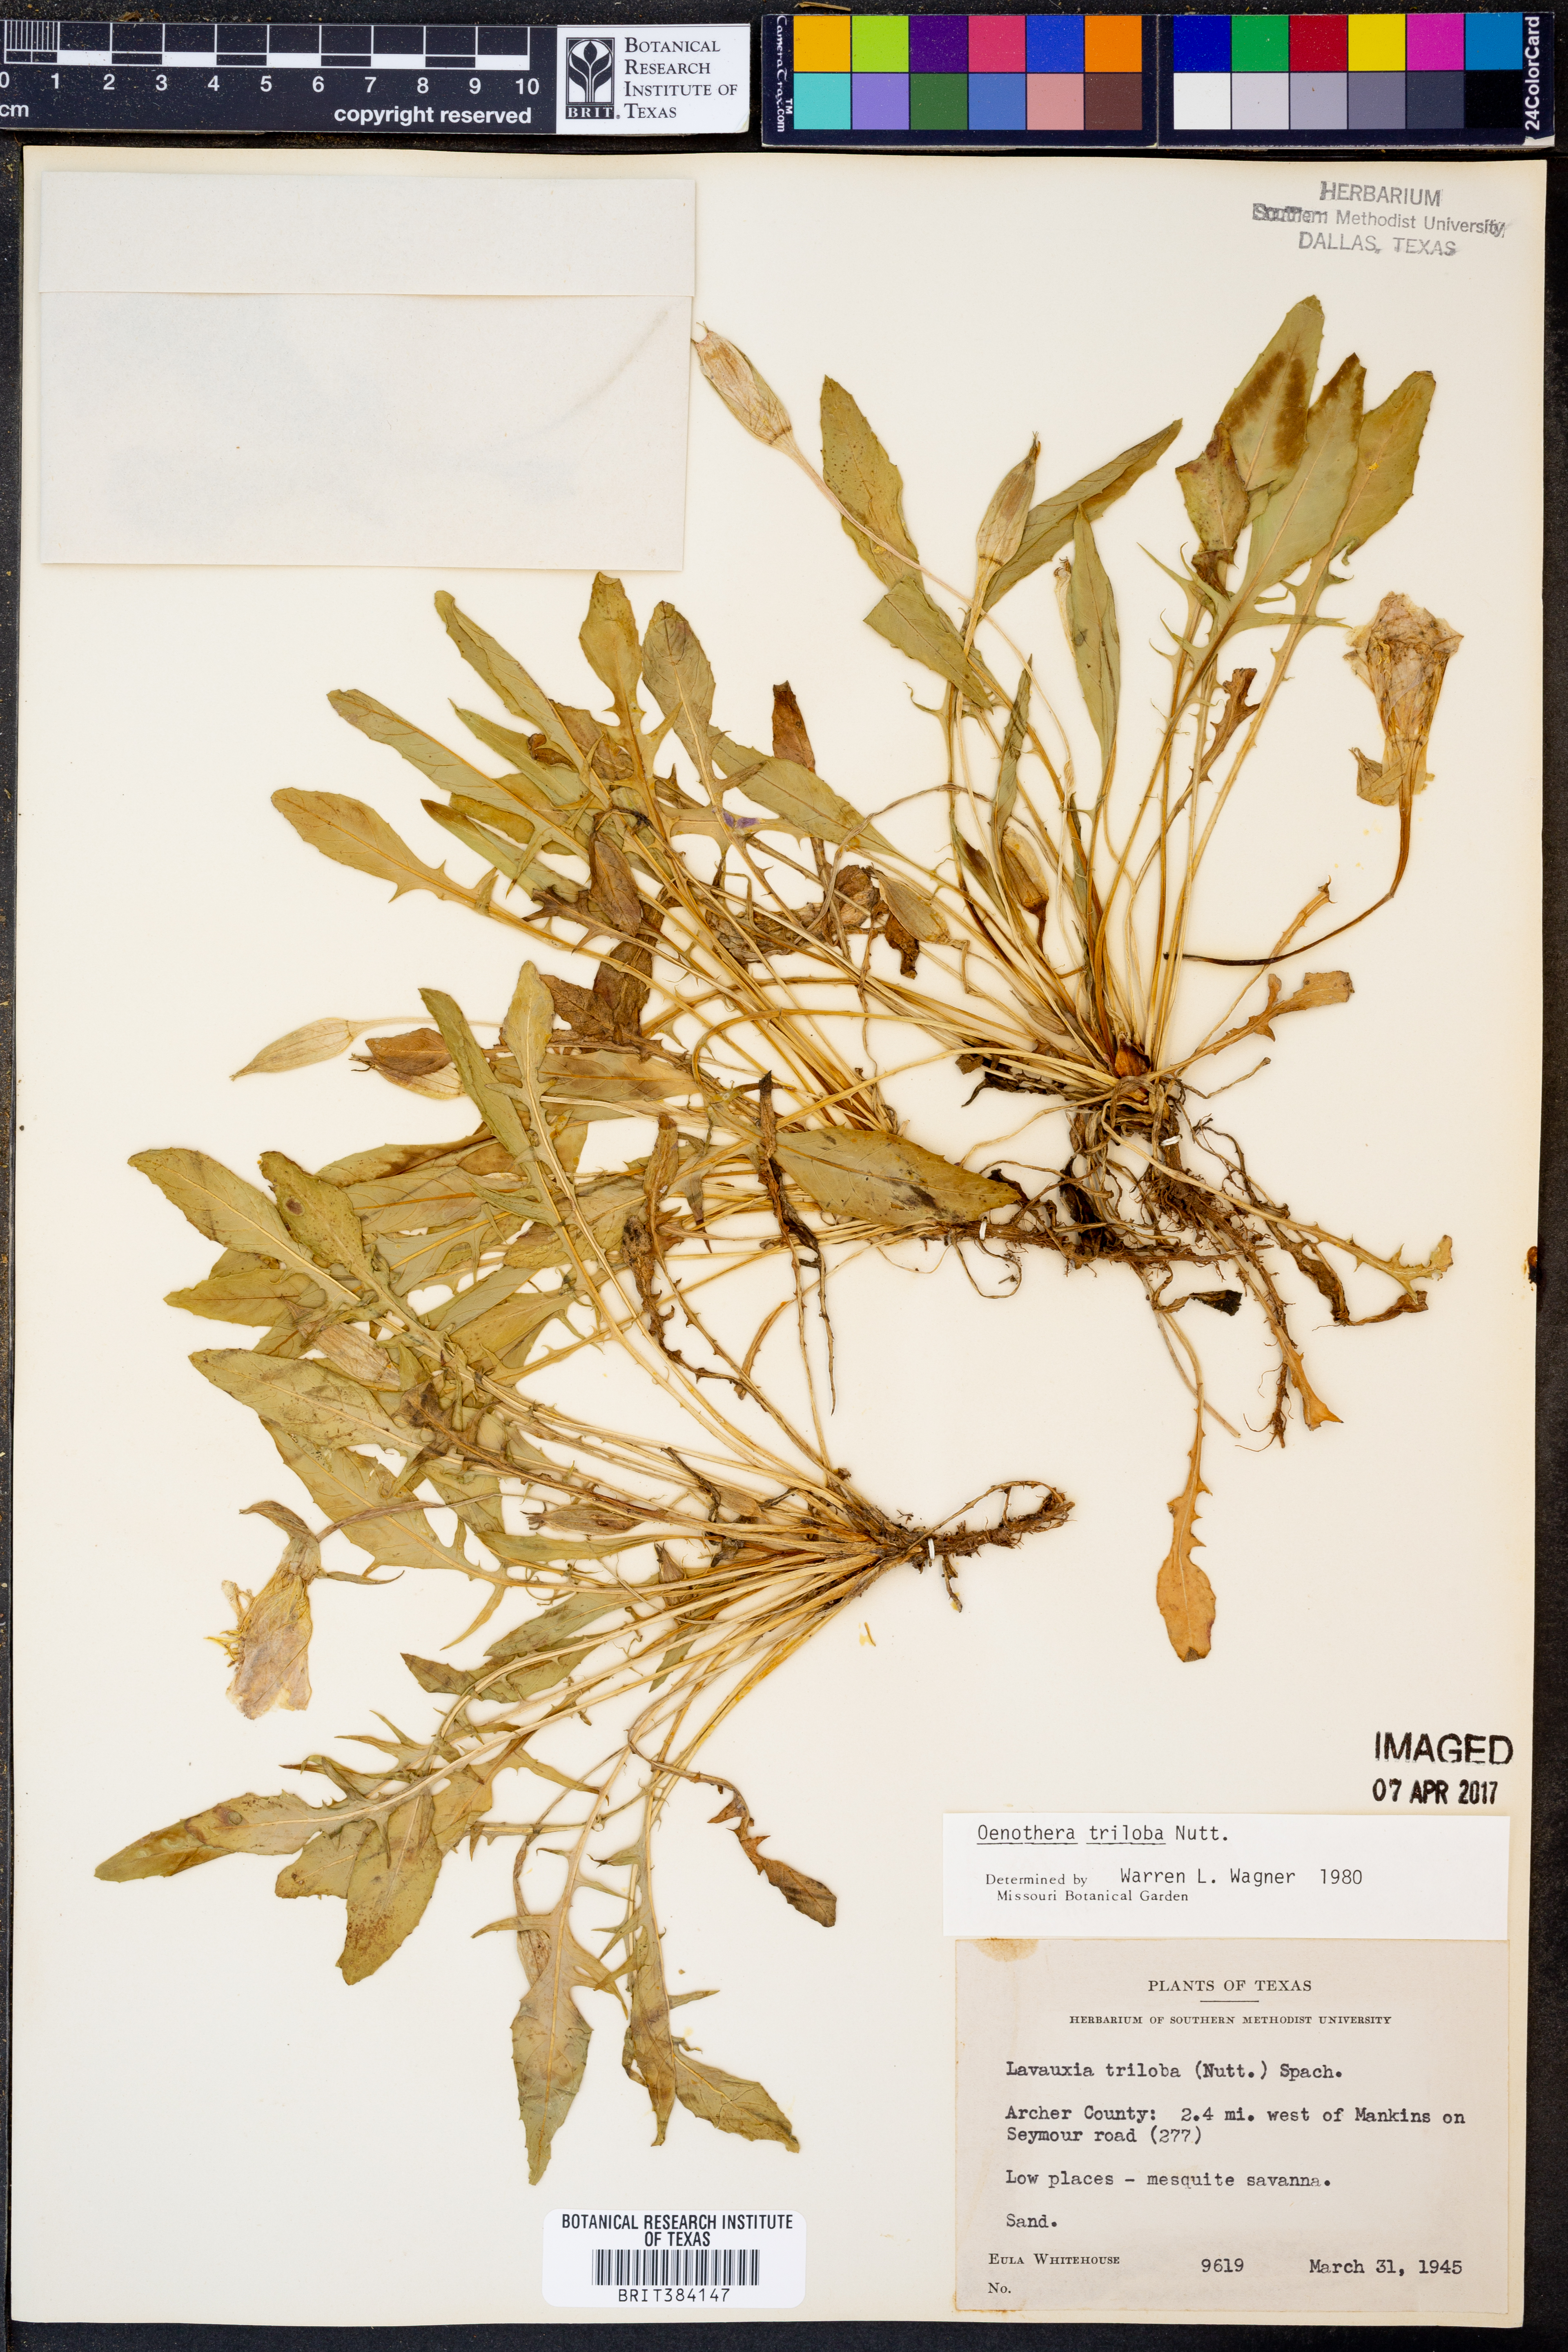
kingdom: Plantae
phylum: Tracheophyta
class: Magnoliopsida
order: Myrtales
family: Onagraceae
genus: Oenothera
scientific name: Oenothera triloba
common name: Sessile evening-primrose
